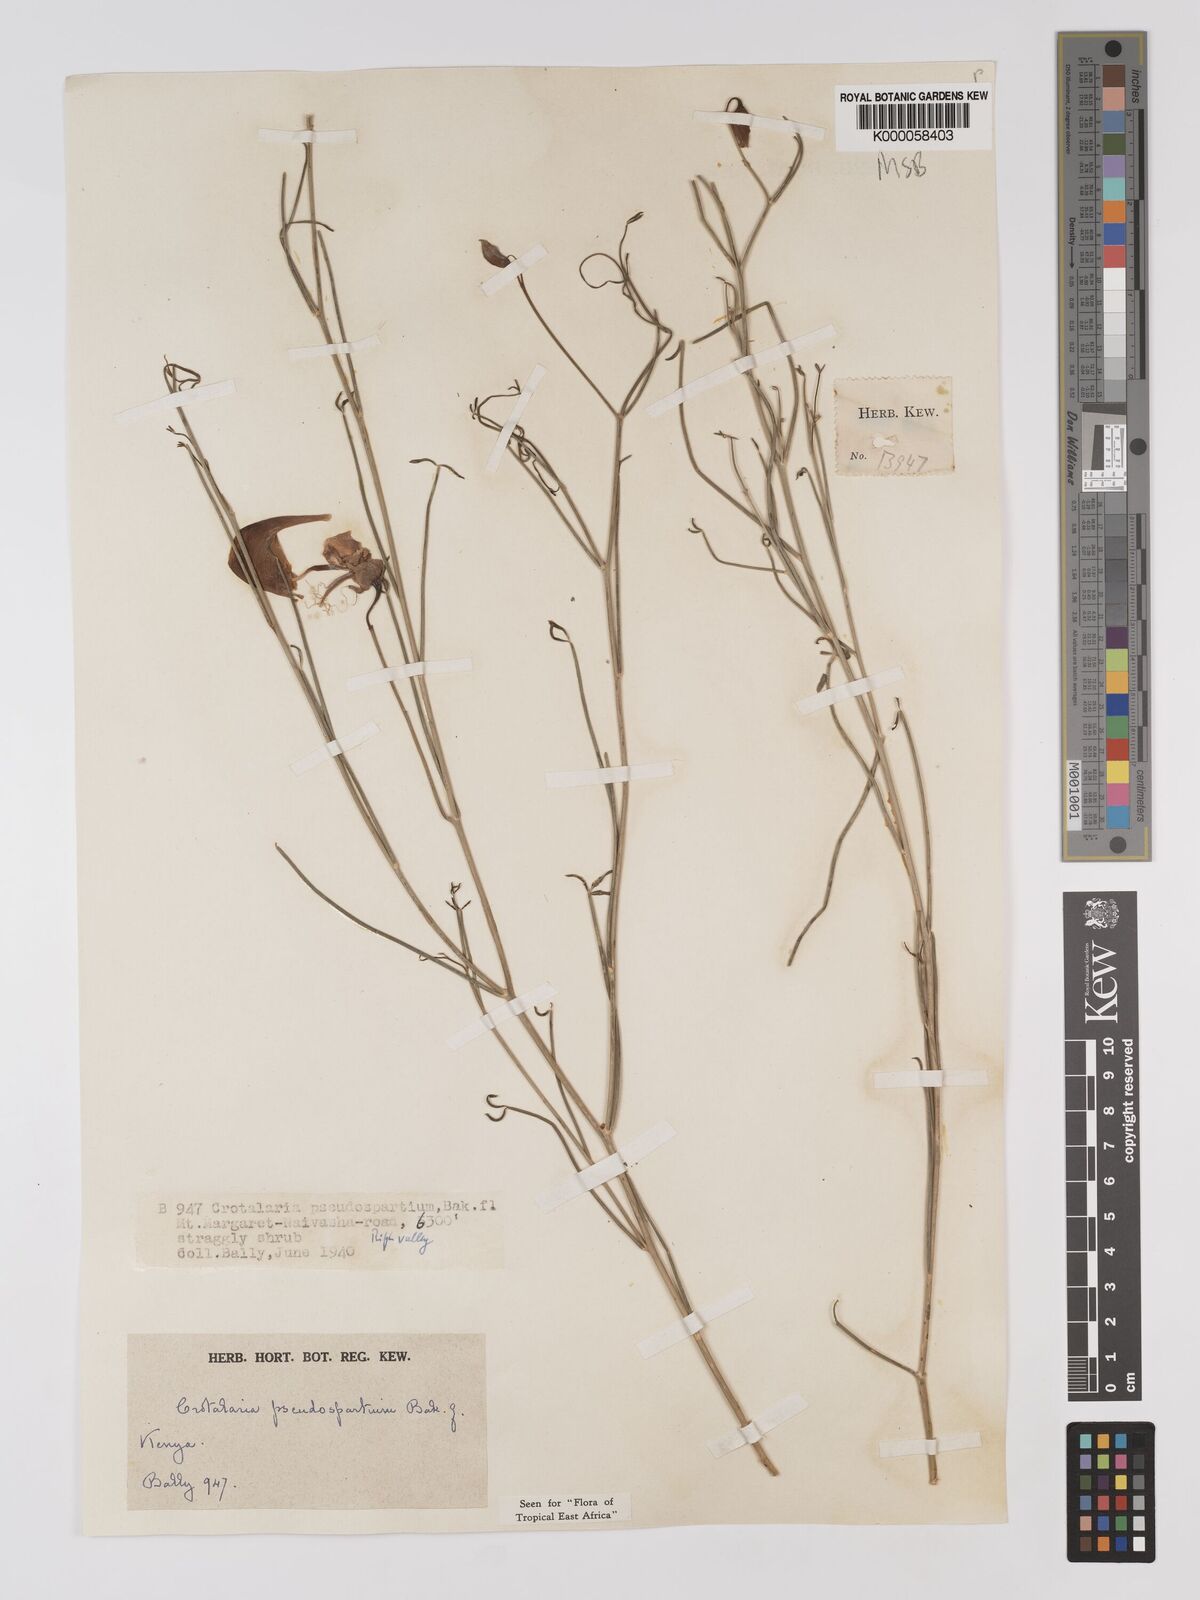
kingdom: Plantae
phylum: Tracheophyta
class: Magnoliopsida
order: Fabales
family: Fabaceae
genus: Crotalaria
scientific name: Crotalaria pseudospartium
